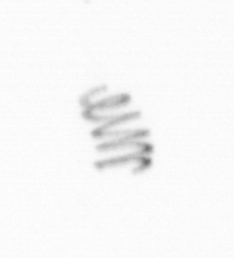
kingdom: Chromista
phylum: Ochrophyta
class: Bacillariophyceae
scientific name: Bacillariophyceae
